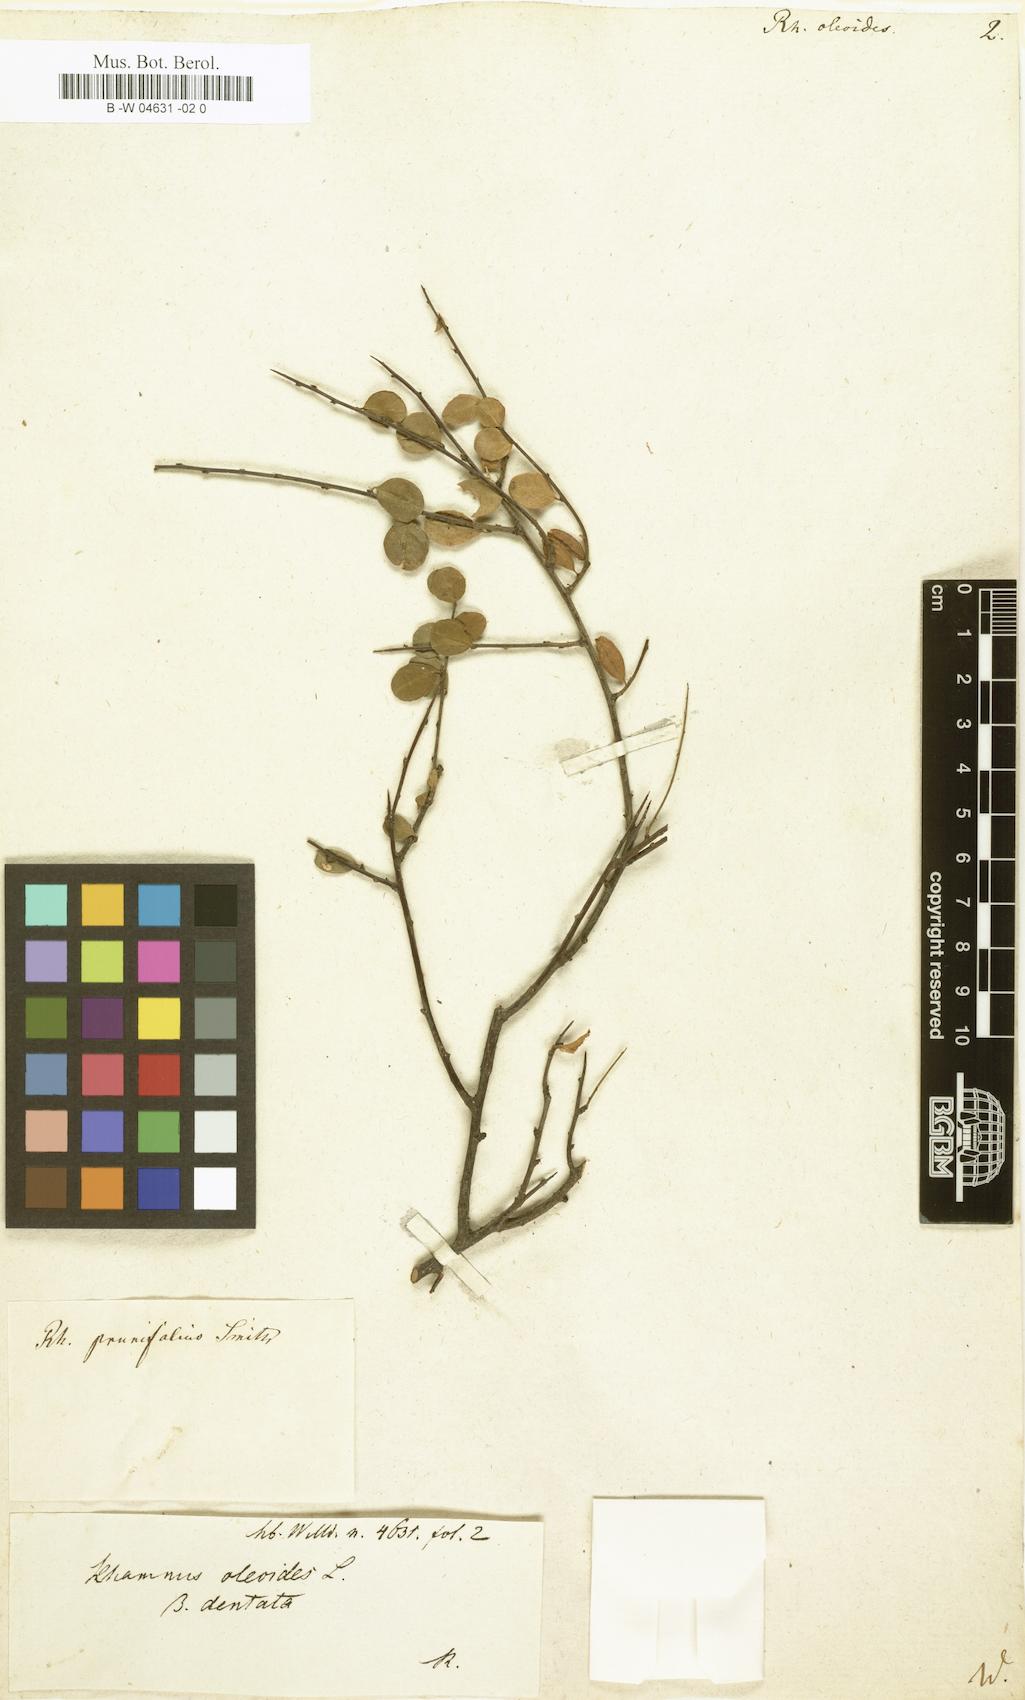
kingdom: Plantae
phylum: Tracheophyta
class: Magnoliopsida
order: Rosales
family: Rhamnaceae
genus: Rhamnus
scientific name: Rhamnus oleoides
